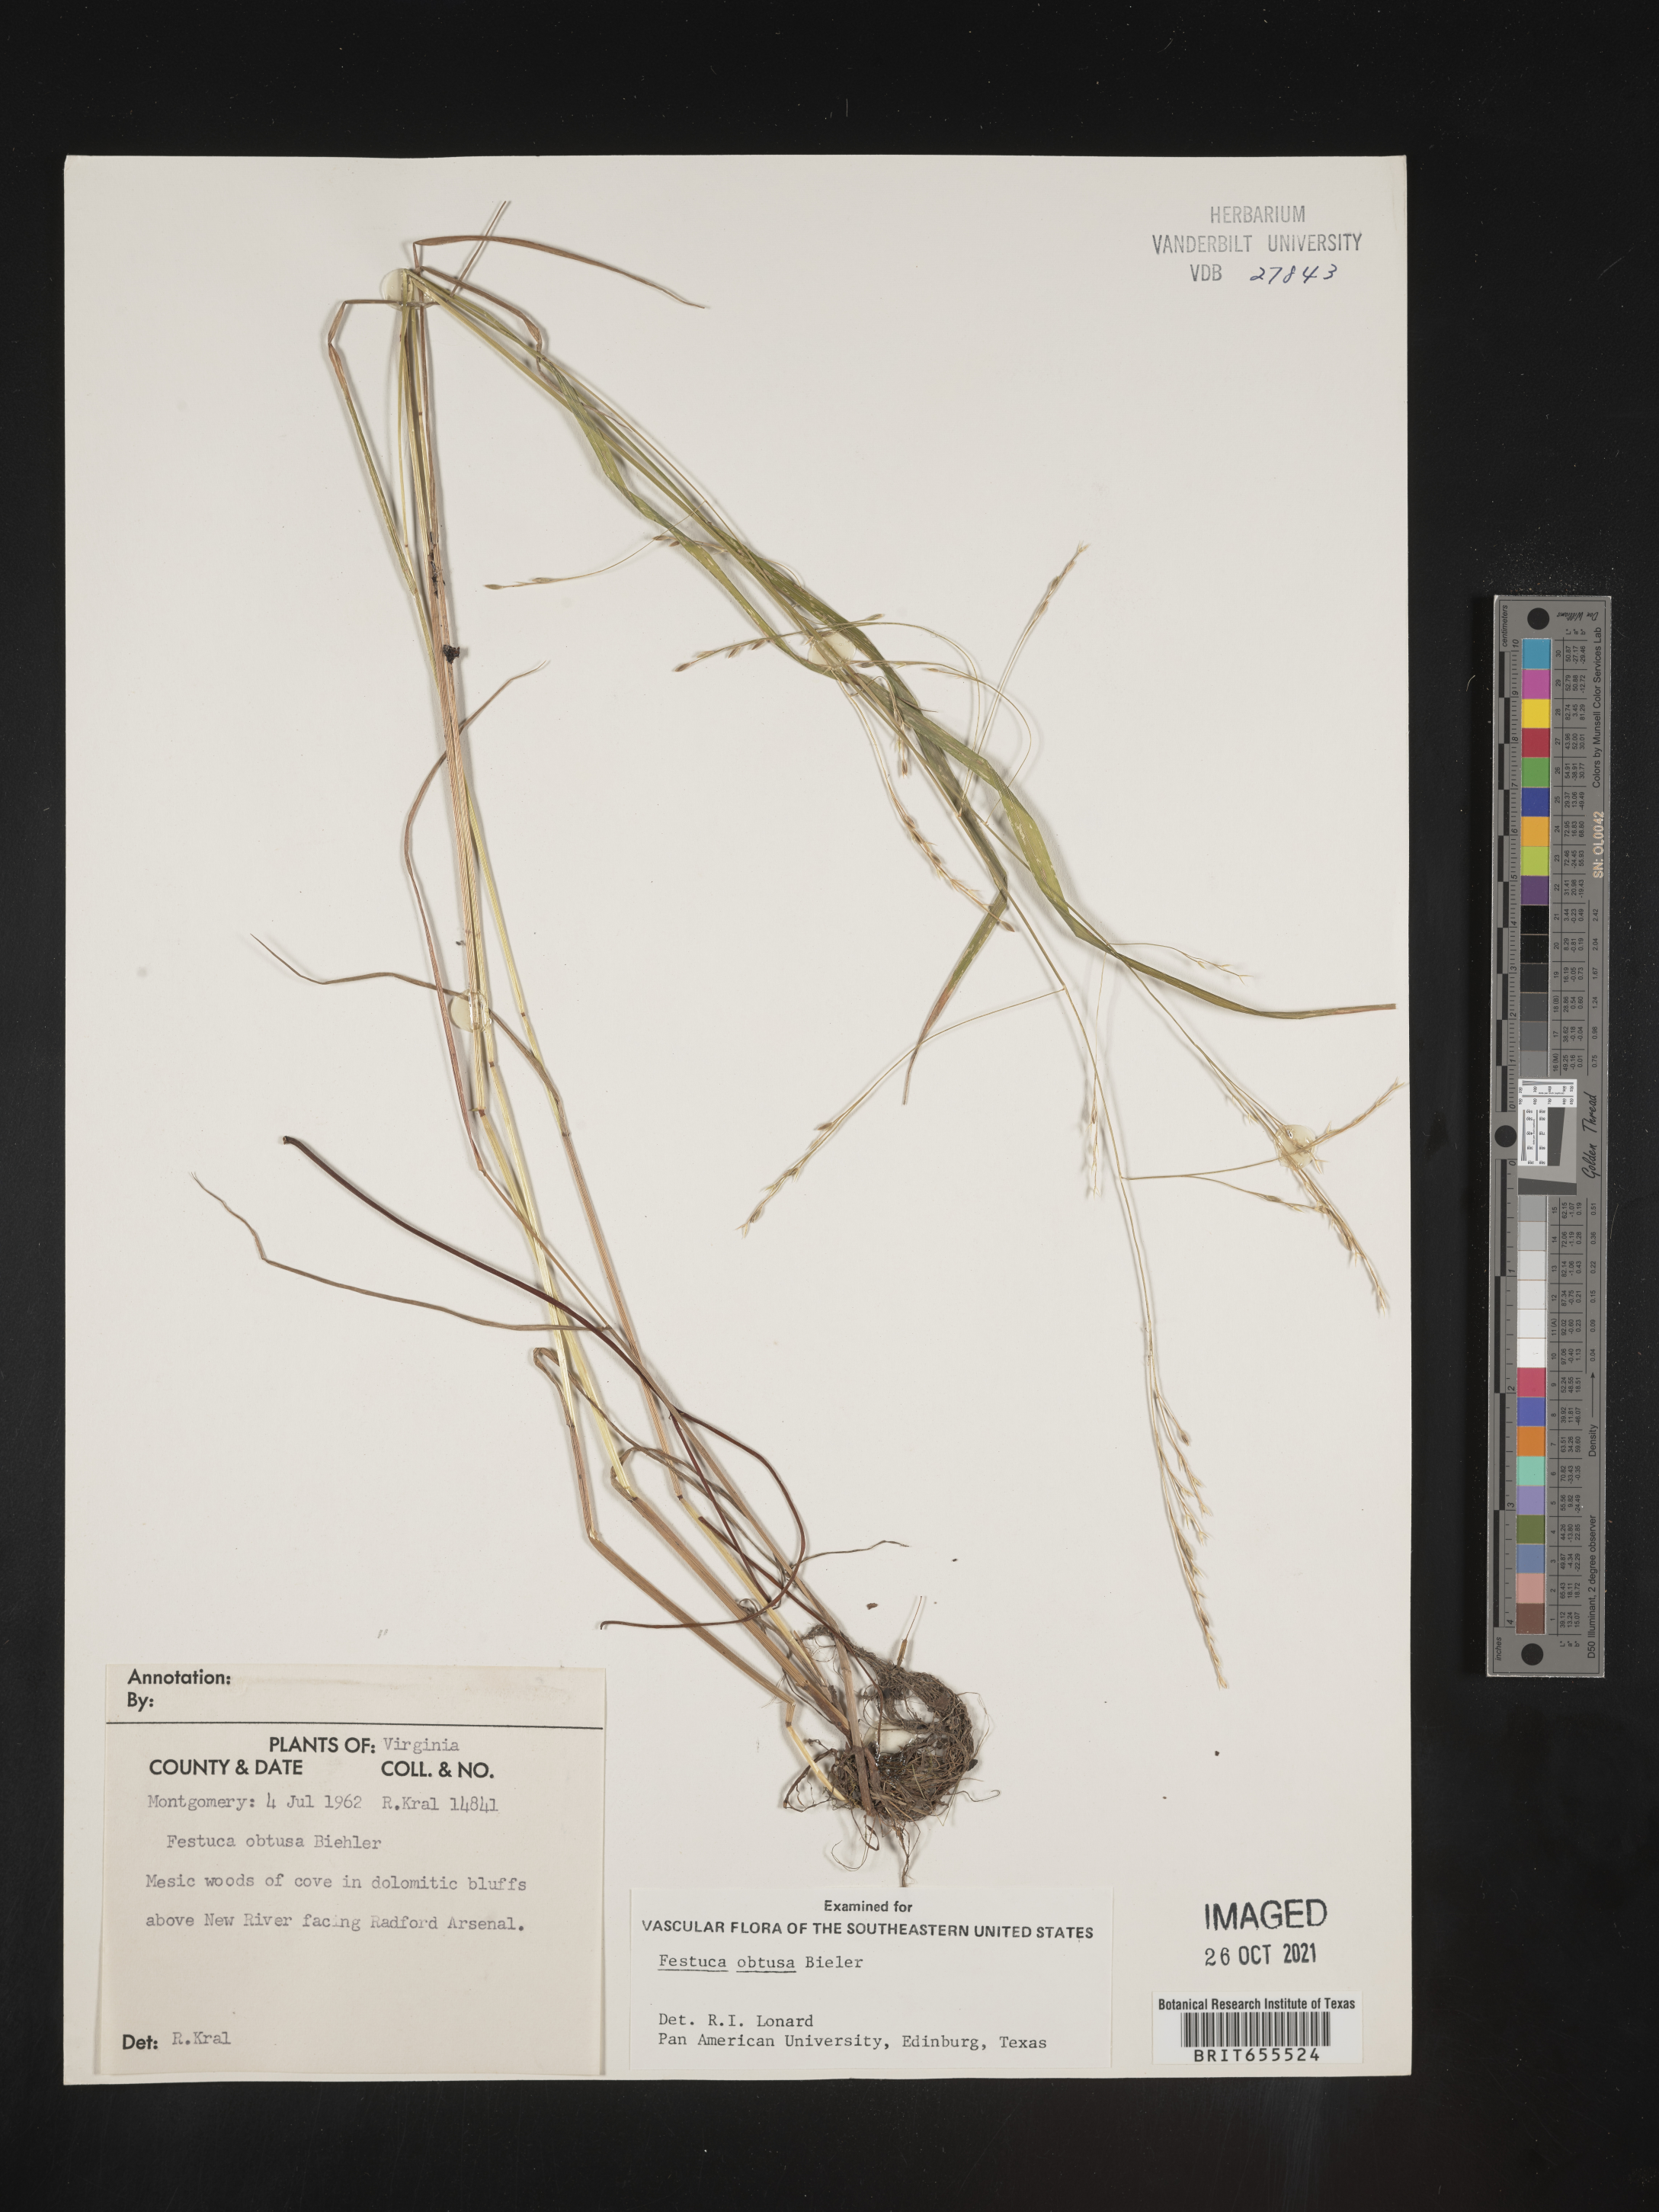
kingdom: Plantae
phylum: Tracheophyta
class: Liliopsida
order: Poales
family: Poaceae
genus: Festuca
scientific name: Festuca
